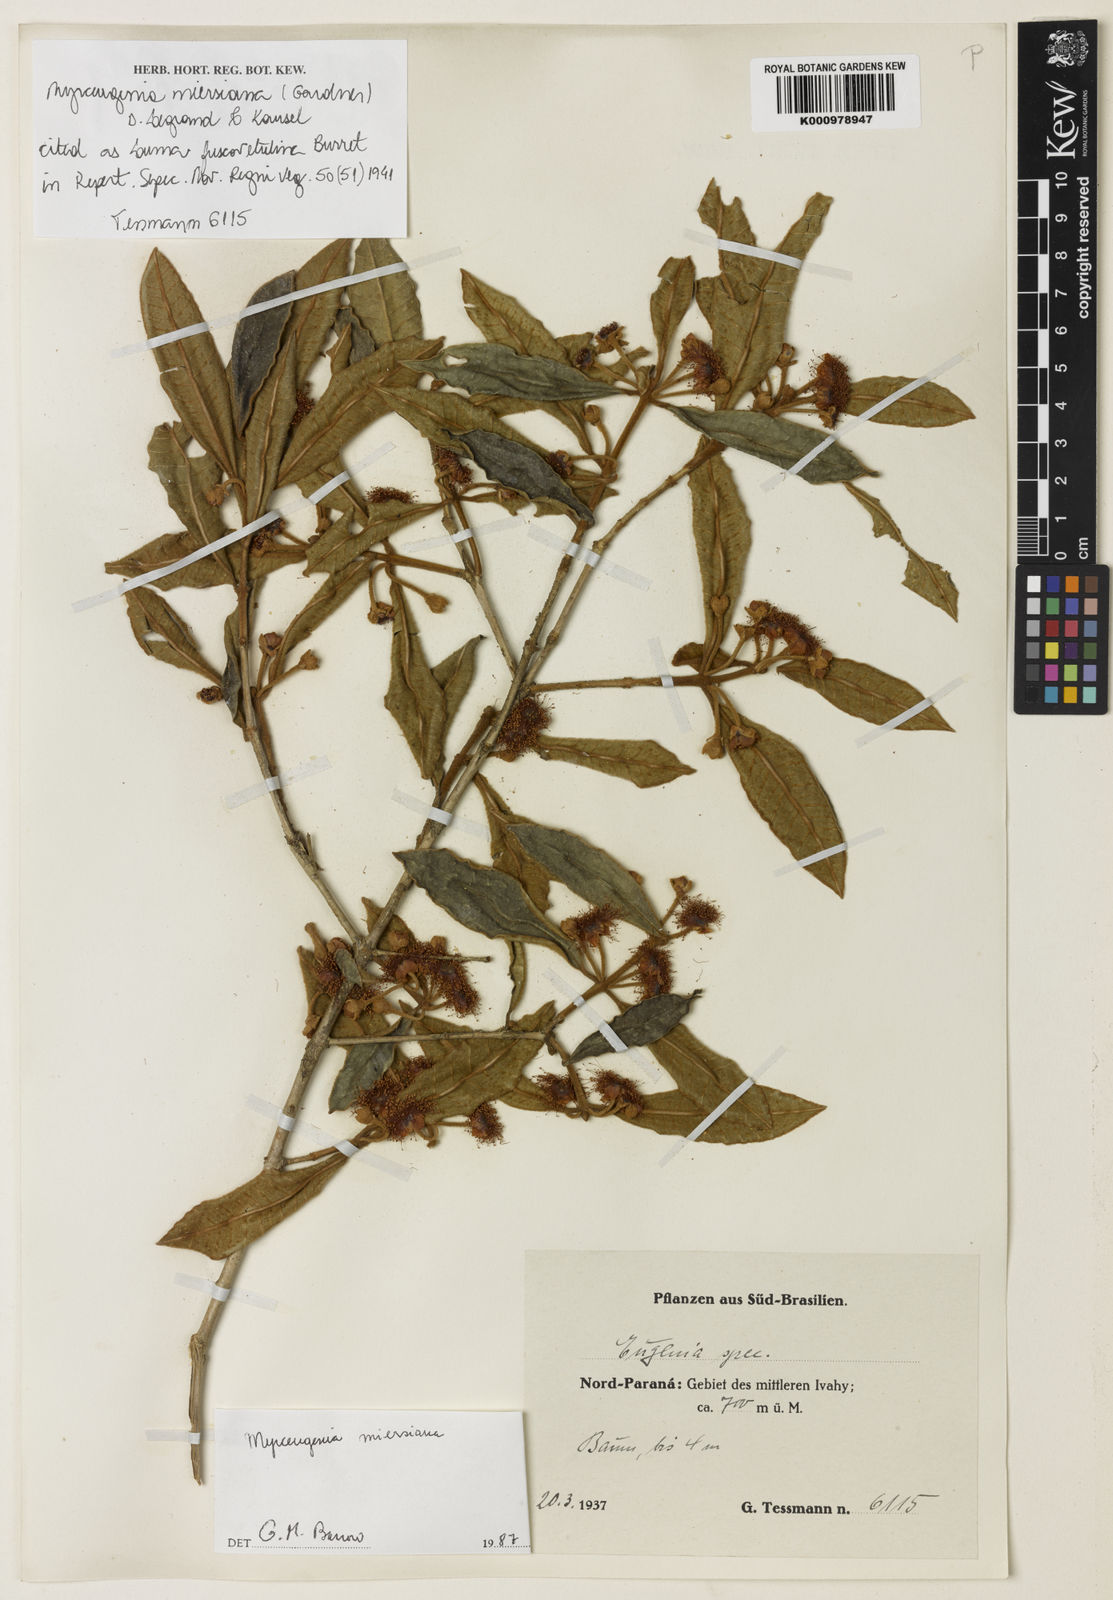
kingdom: Plantae
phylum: Tracheophyta
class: Magnoliopsida
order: Myrtales
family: Myrtaceae
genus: Myrceugenia
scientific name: Myrceugenia miersiana
